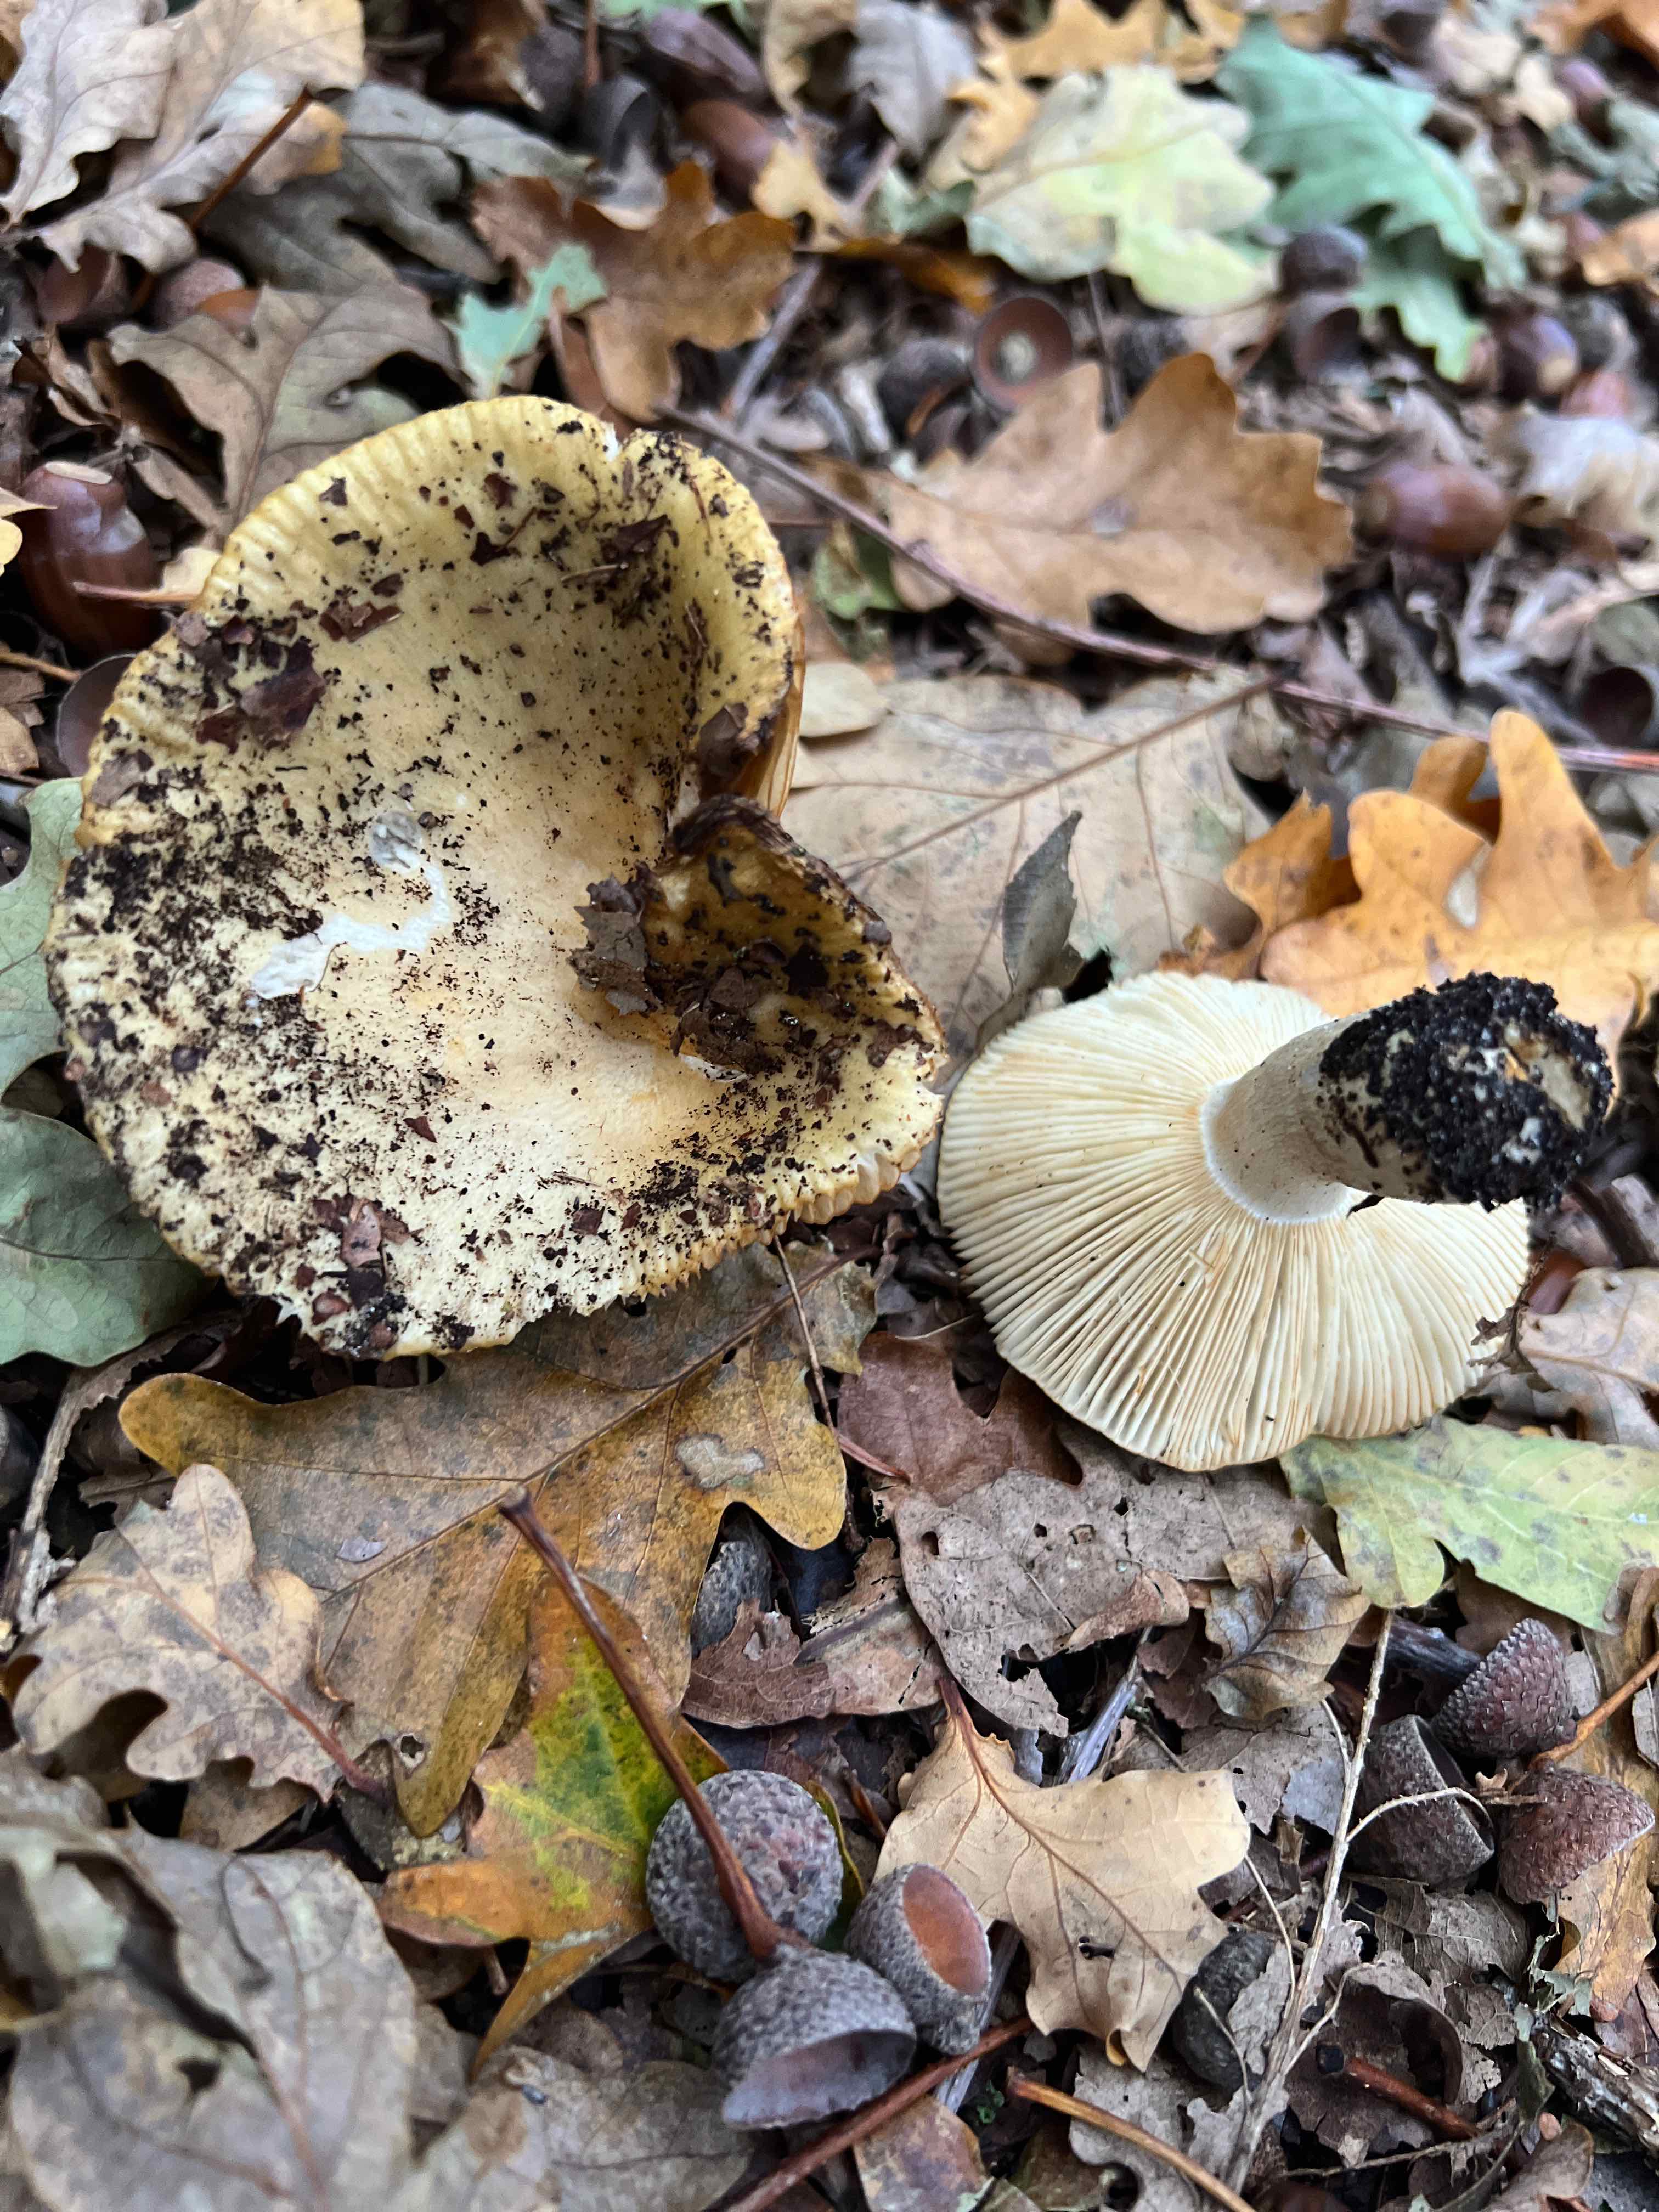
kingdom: Fungi
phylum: Basidiomycota
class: Agaricomycetes
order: Russulales
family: Russulaceae
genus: Russula
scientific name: Russula ochroleuca
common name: okkergul skørhat
